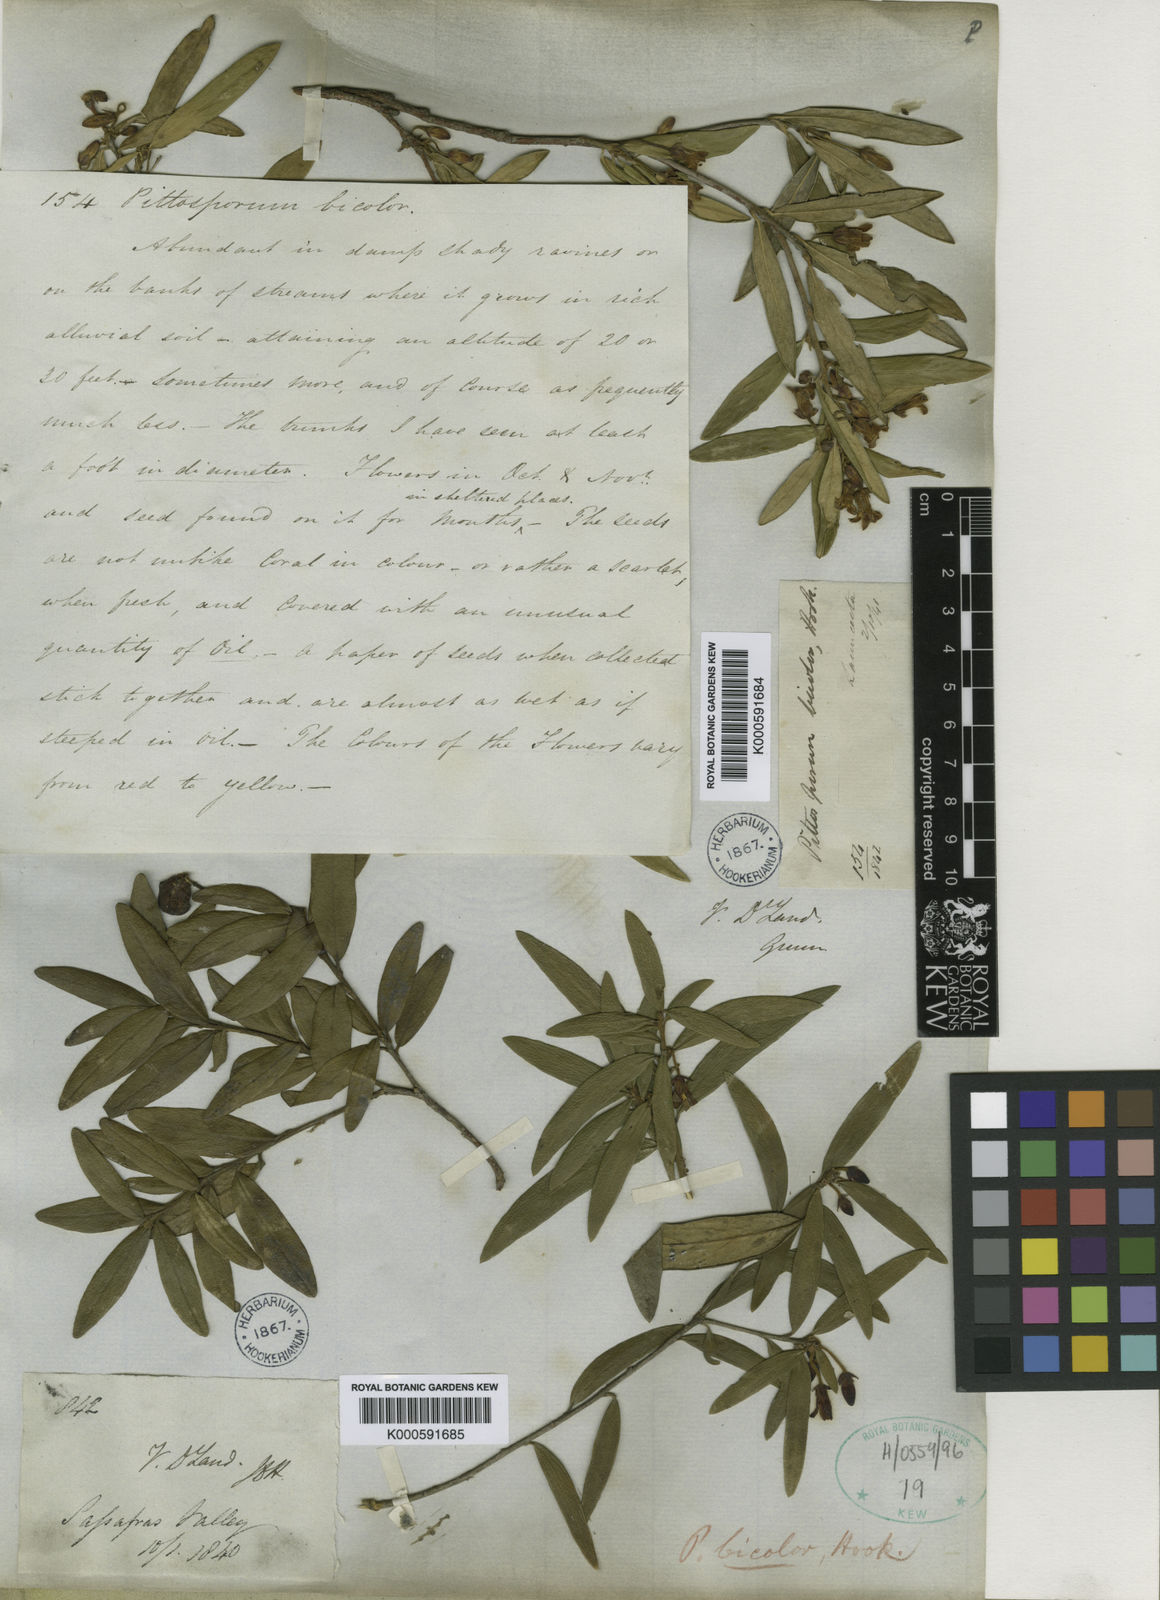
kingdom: Plantae
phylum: Tracheophyta
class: Magnoliopsida
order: Apiales
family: Pittosporaceae
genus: Pittosporum
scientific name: Pittosporum bicolor
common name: Tallowwood
